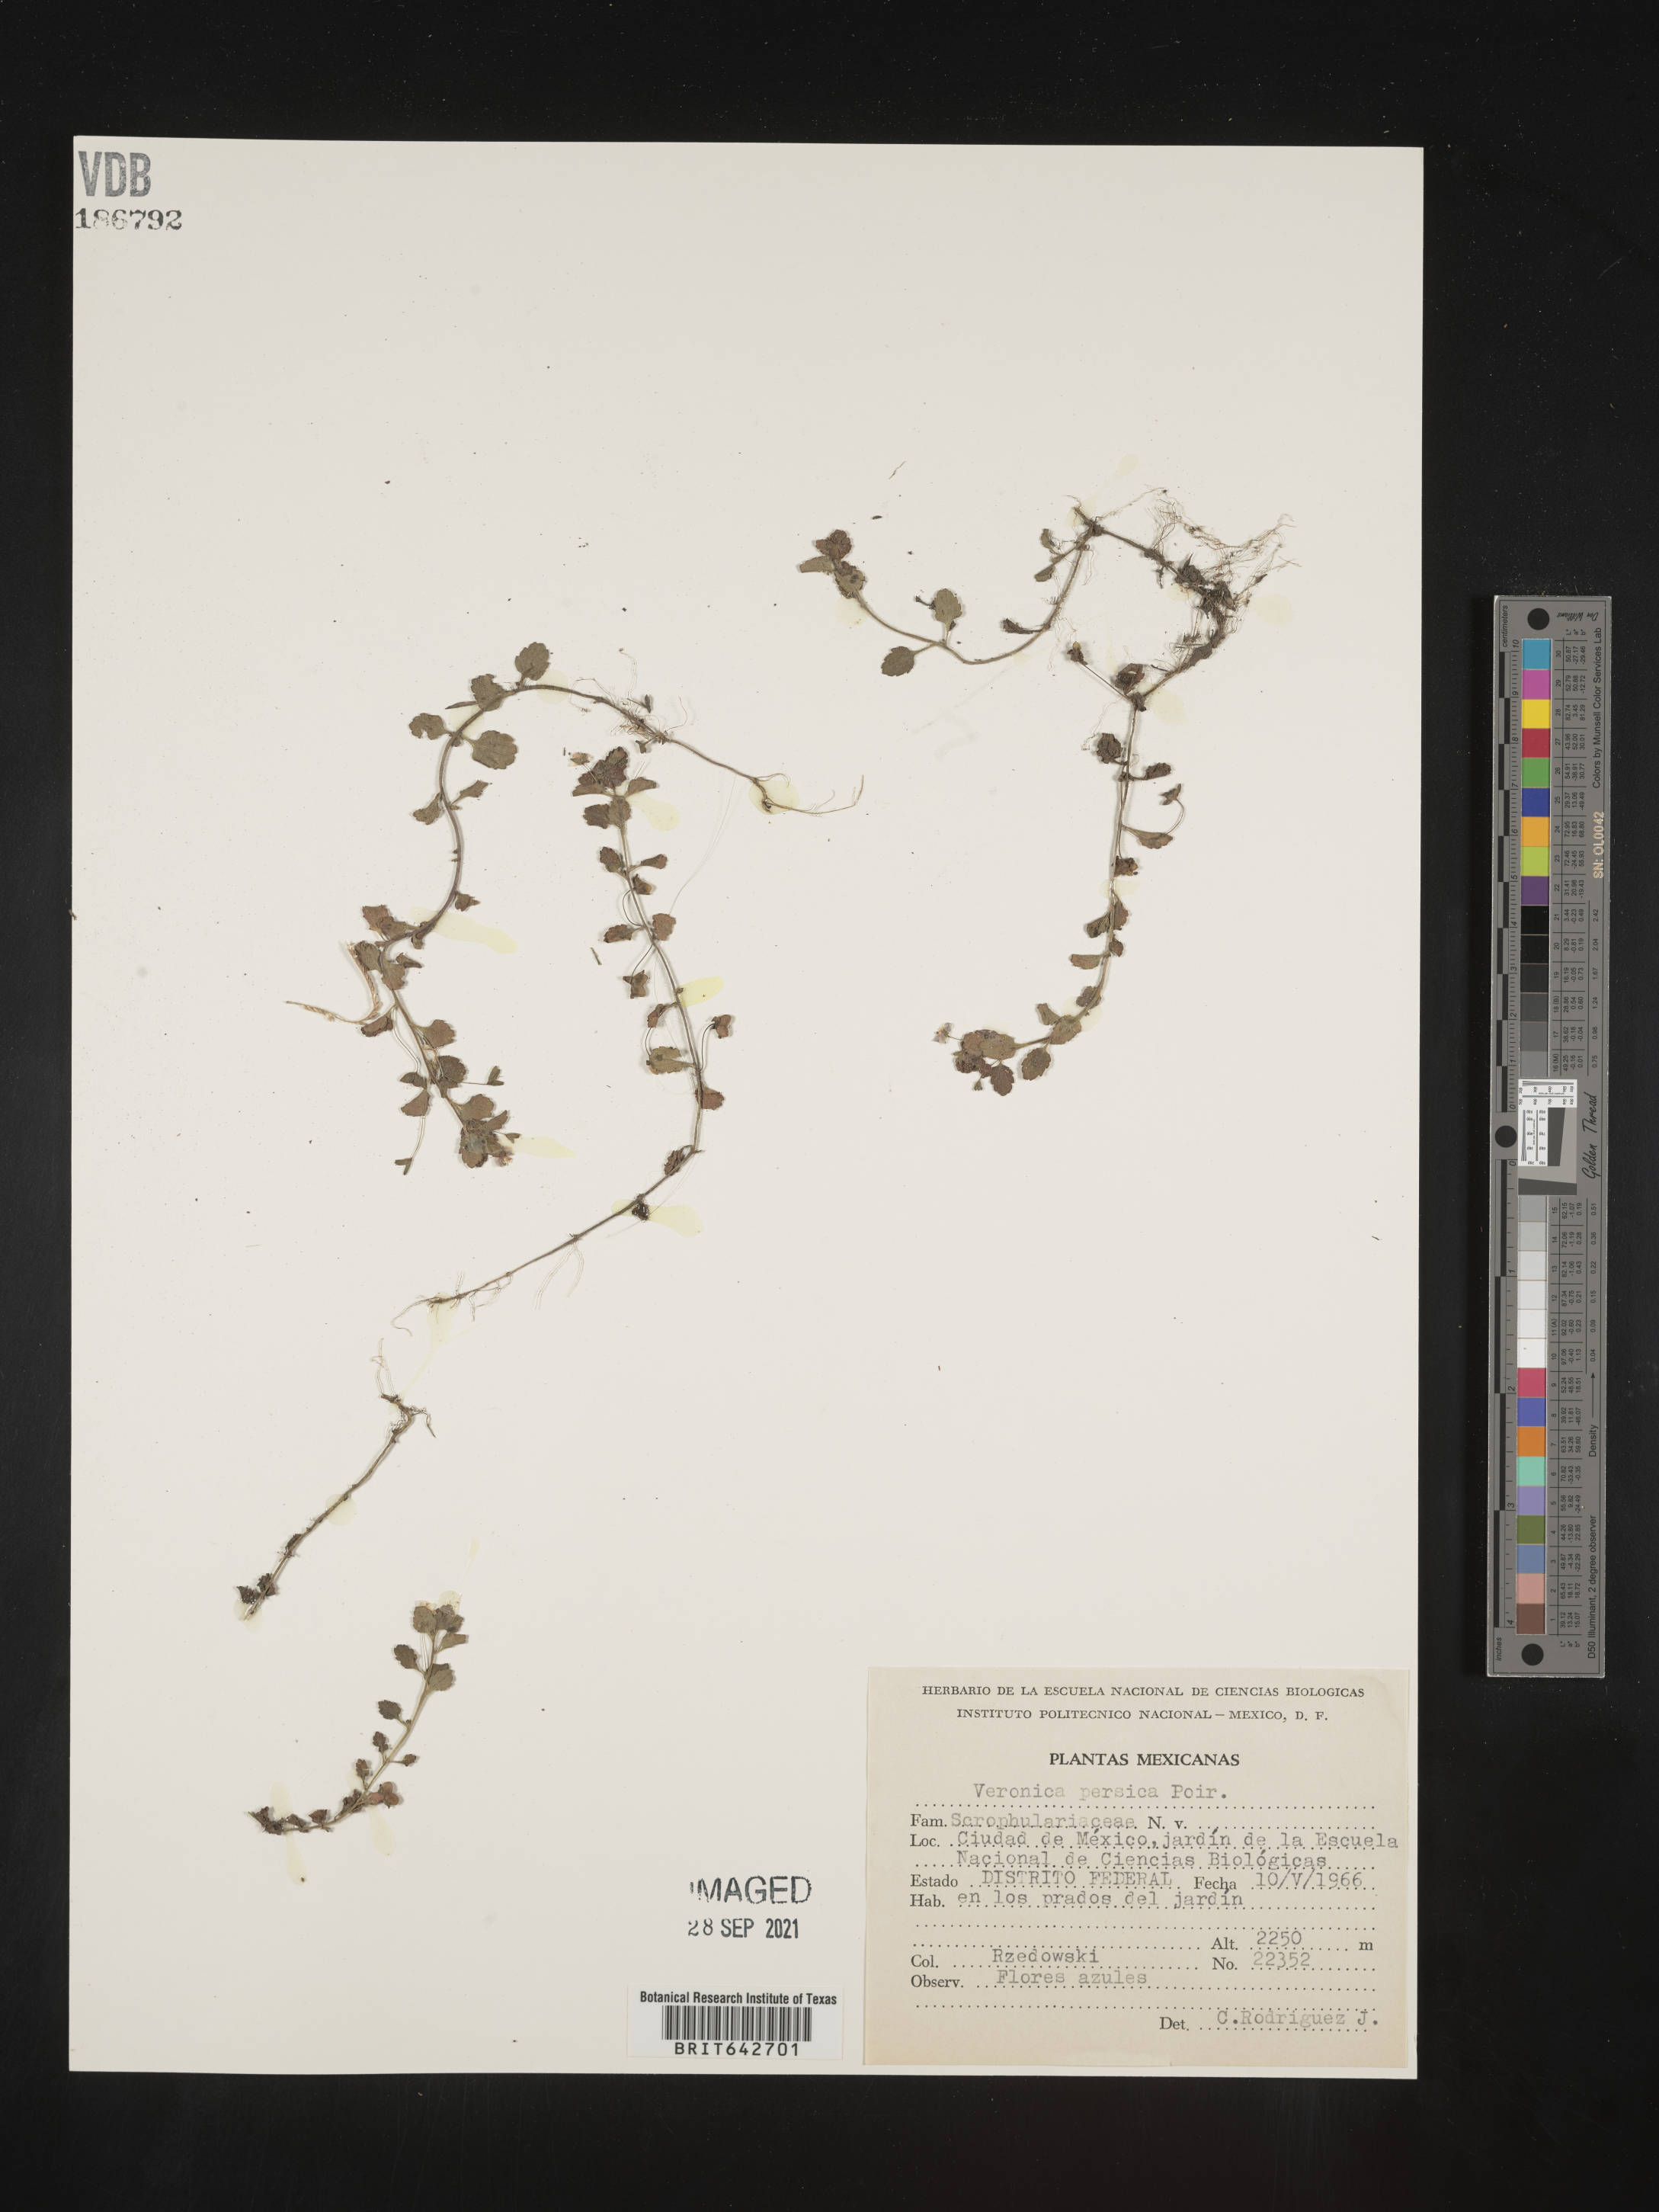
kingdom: Plantae
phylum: Tracheophyta
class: Magnoliopsida
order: Lamiales
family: Plantaginaceae
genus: Veronica
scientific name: Veronica
